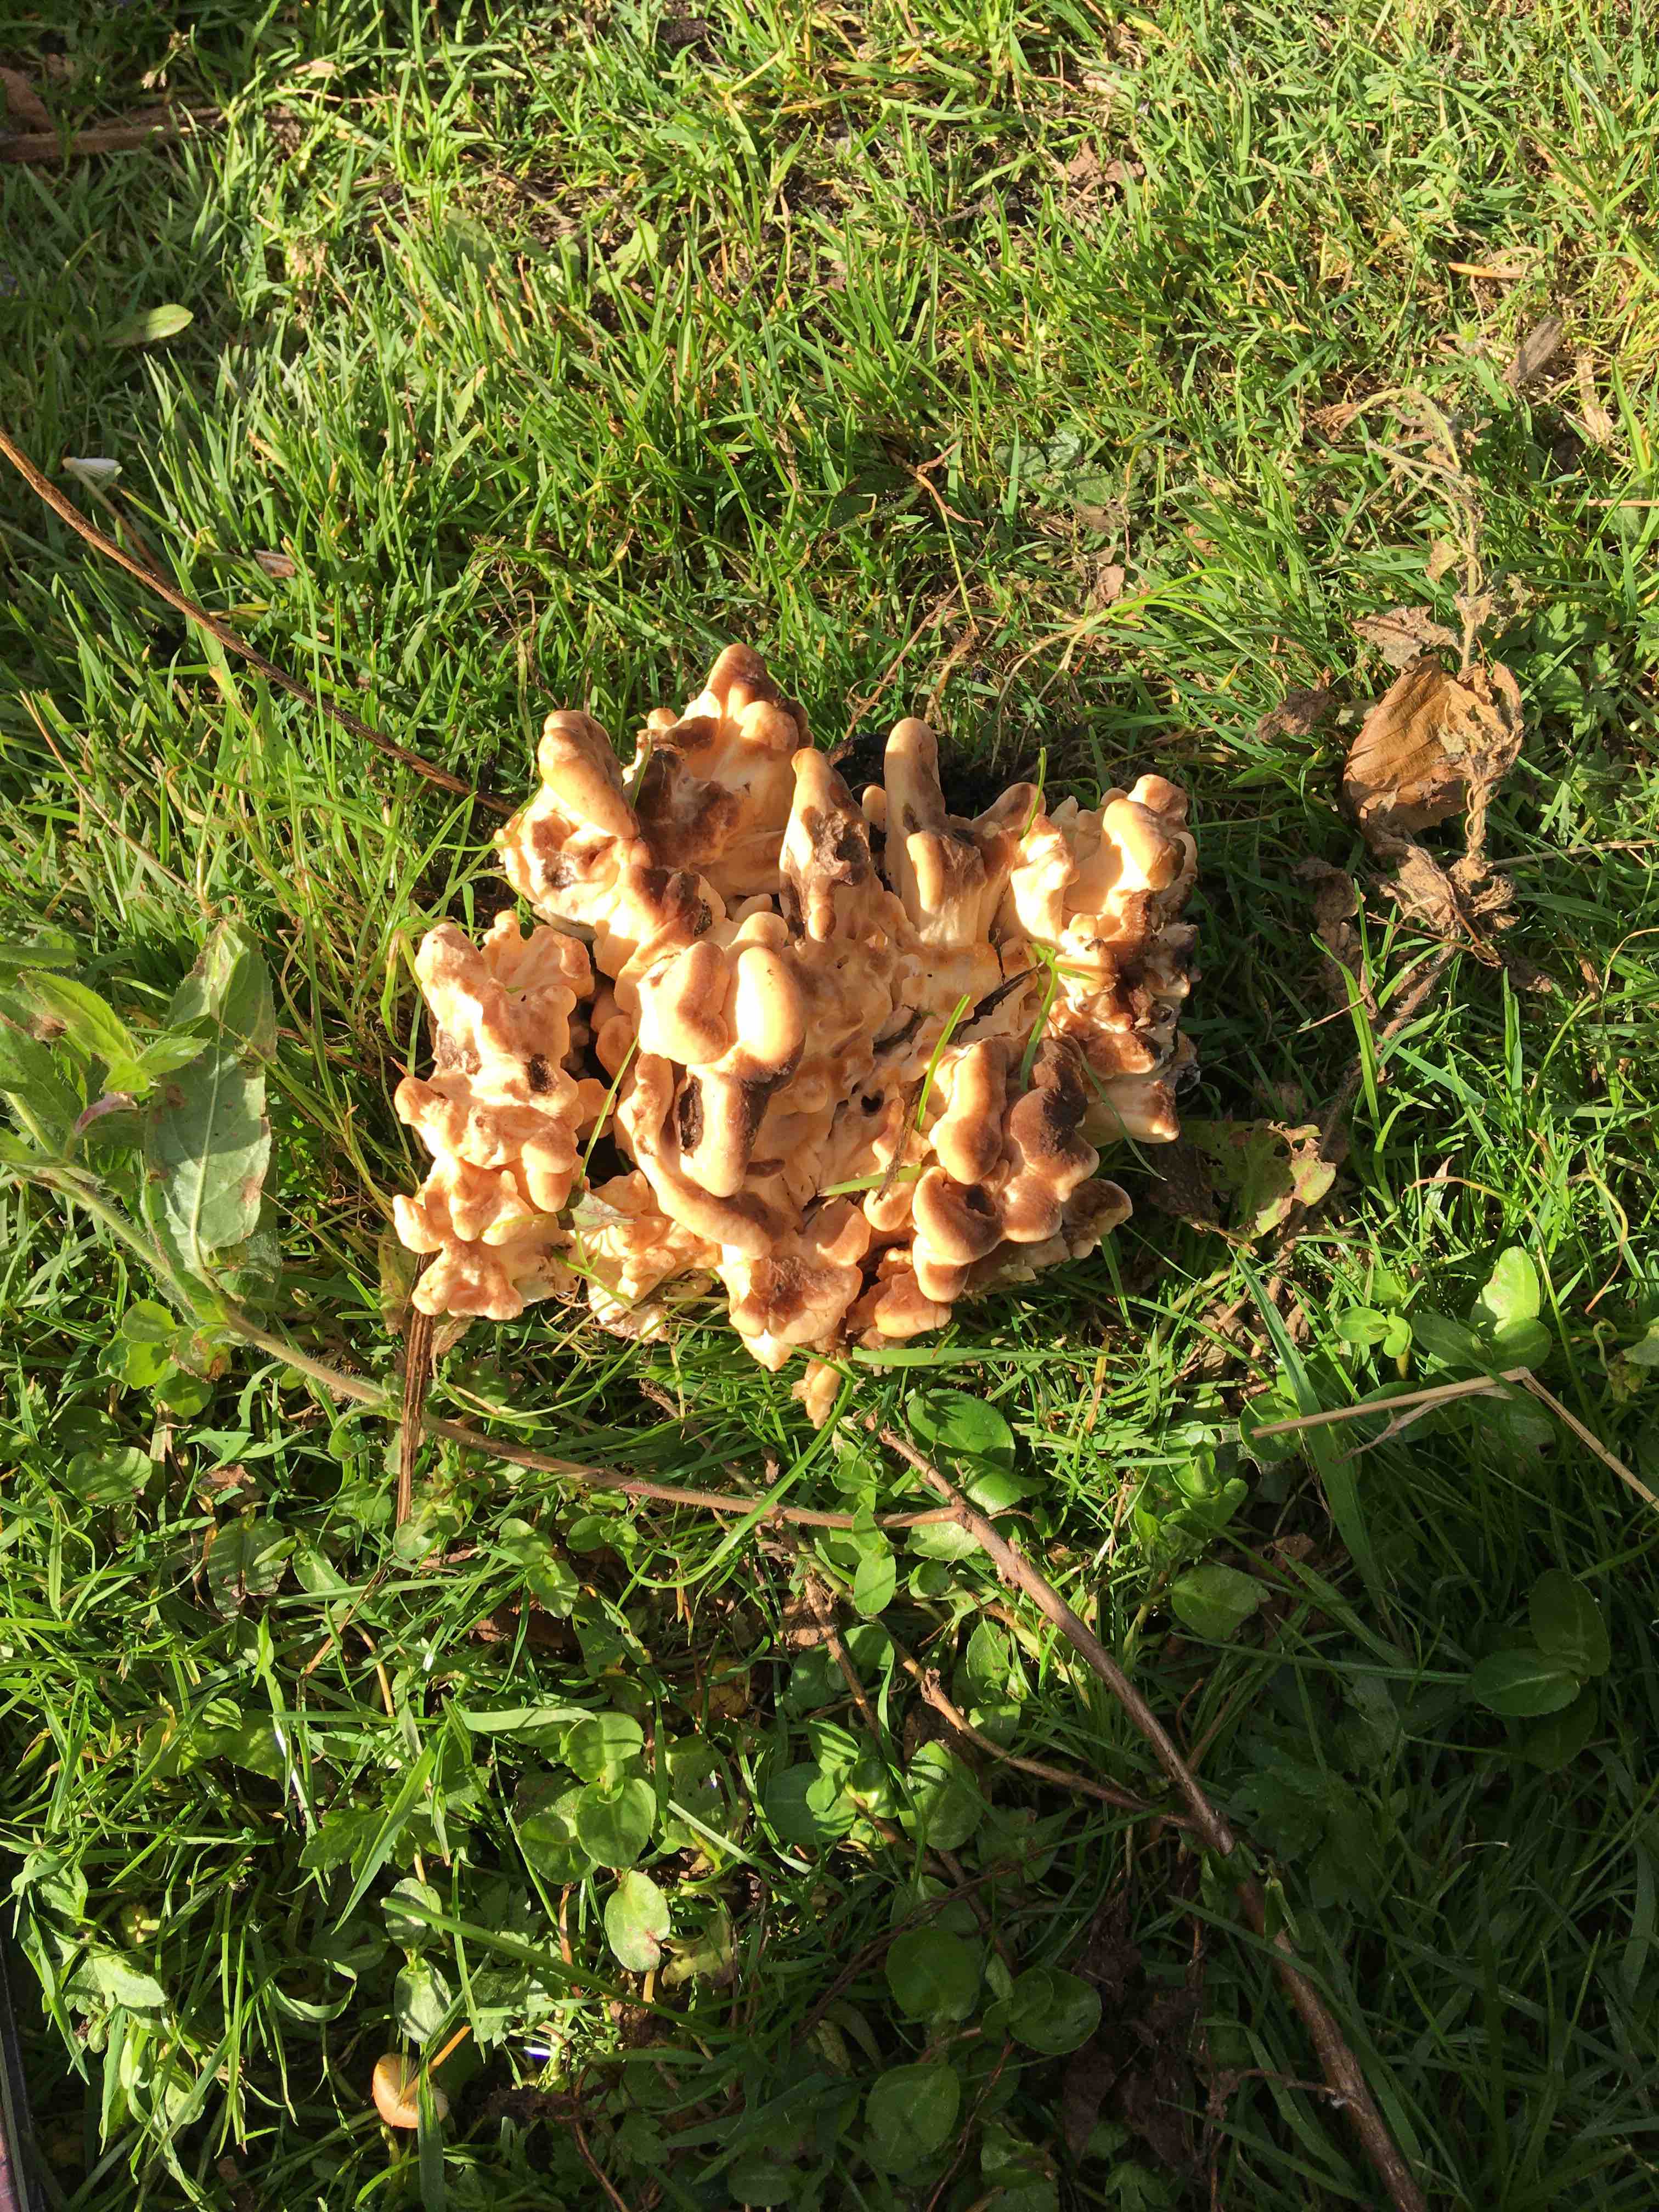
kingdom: Fungi
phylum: Basidiomycota
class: Agaricomycetes
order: Polyporales
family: Meripilaceae
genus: Meripilus
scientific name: Meripilus giganteus
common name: kæmpeporesvamp
